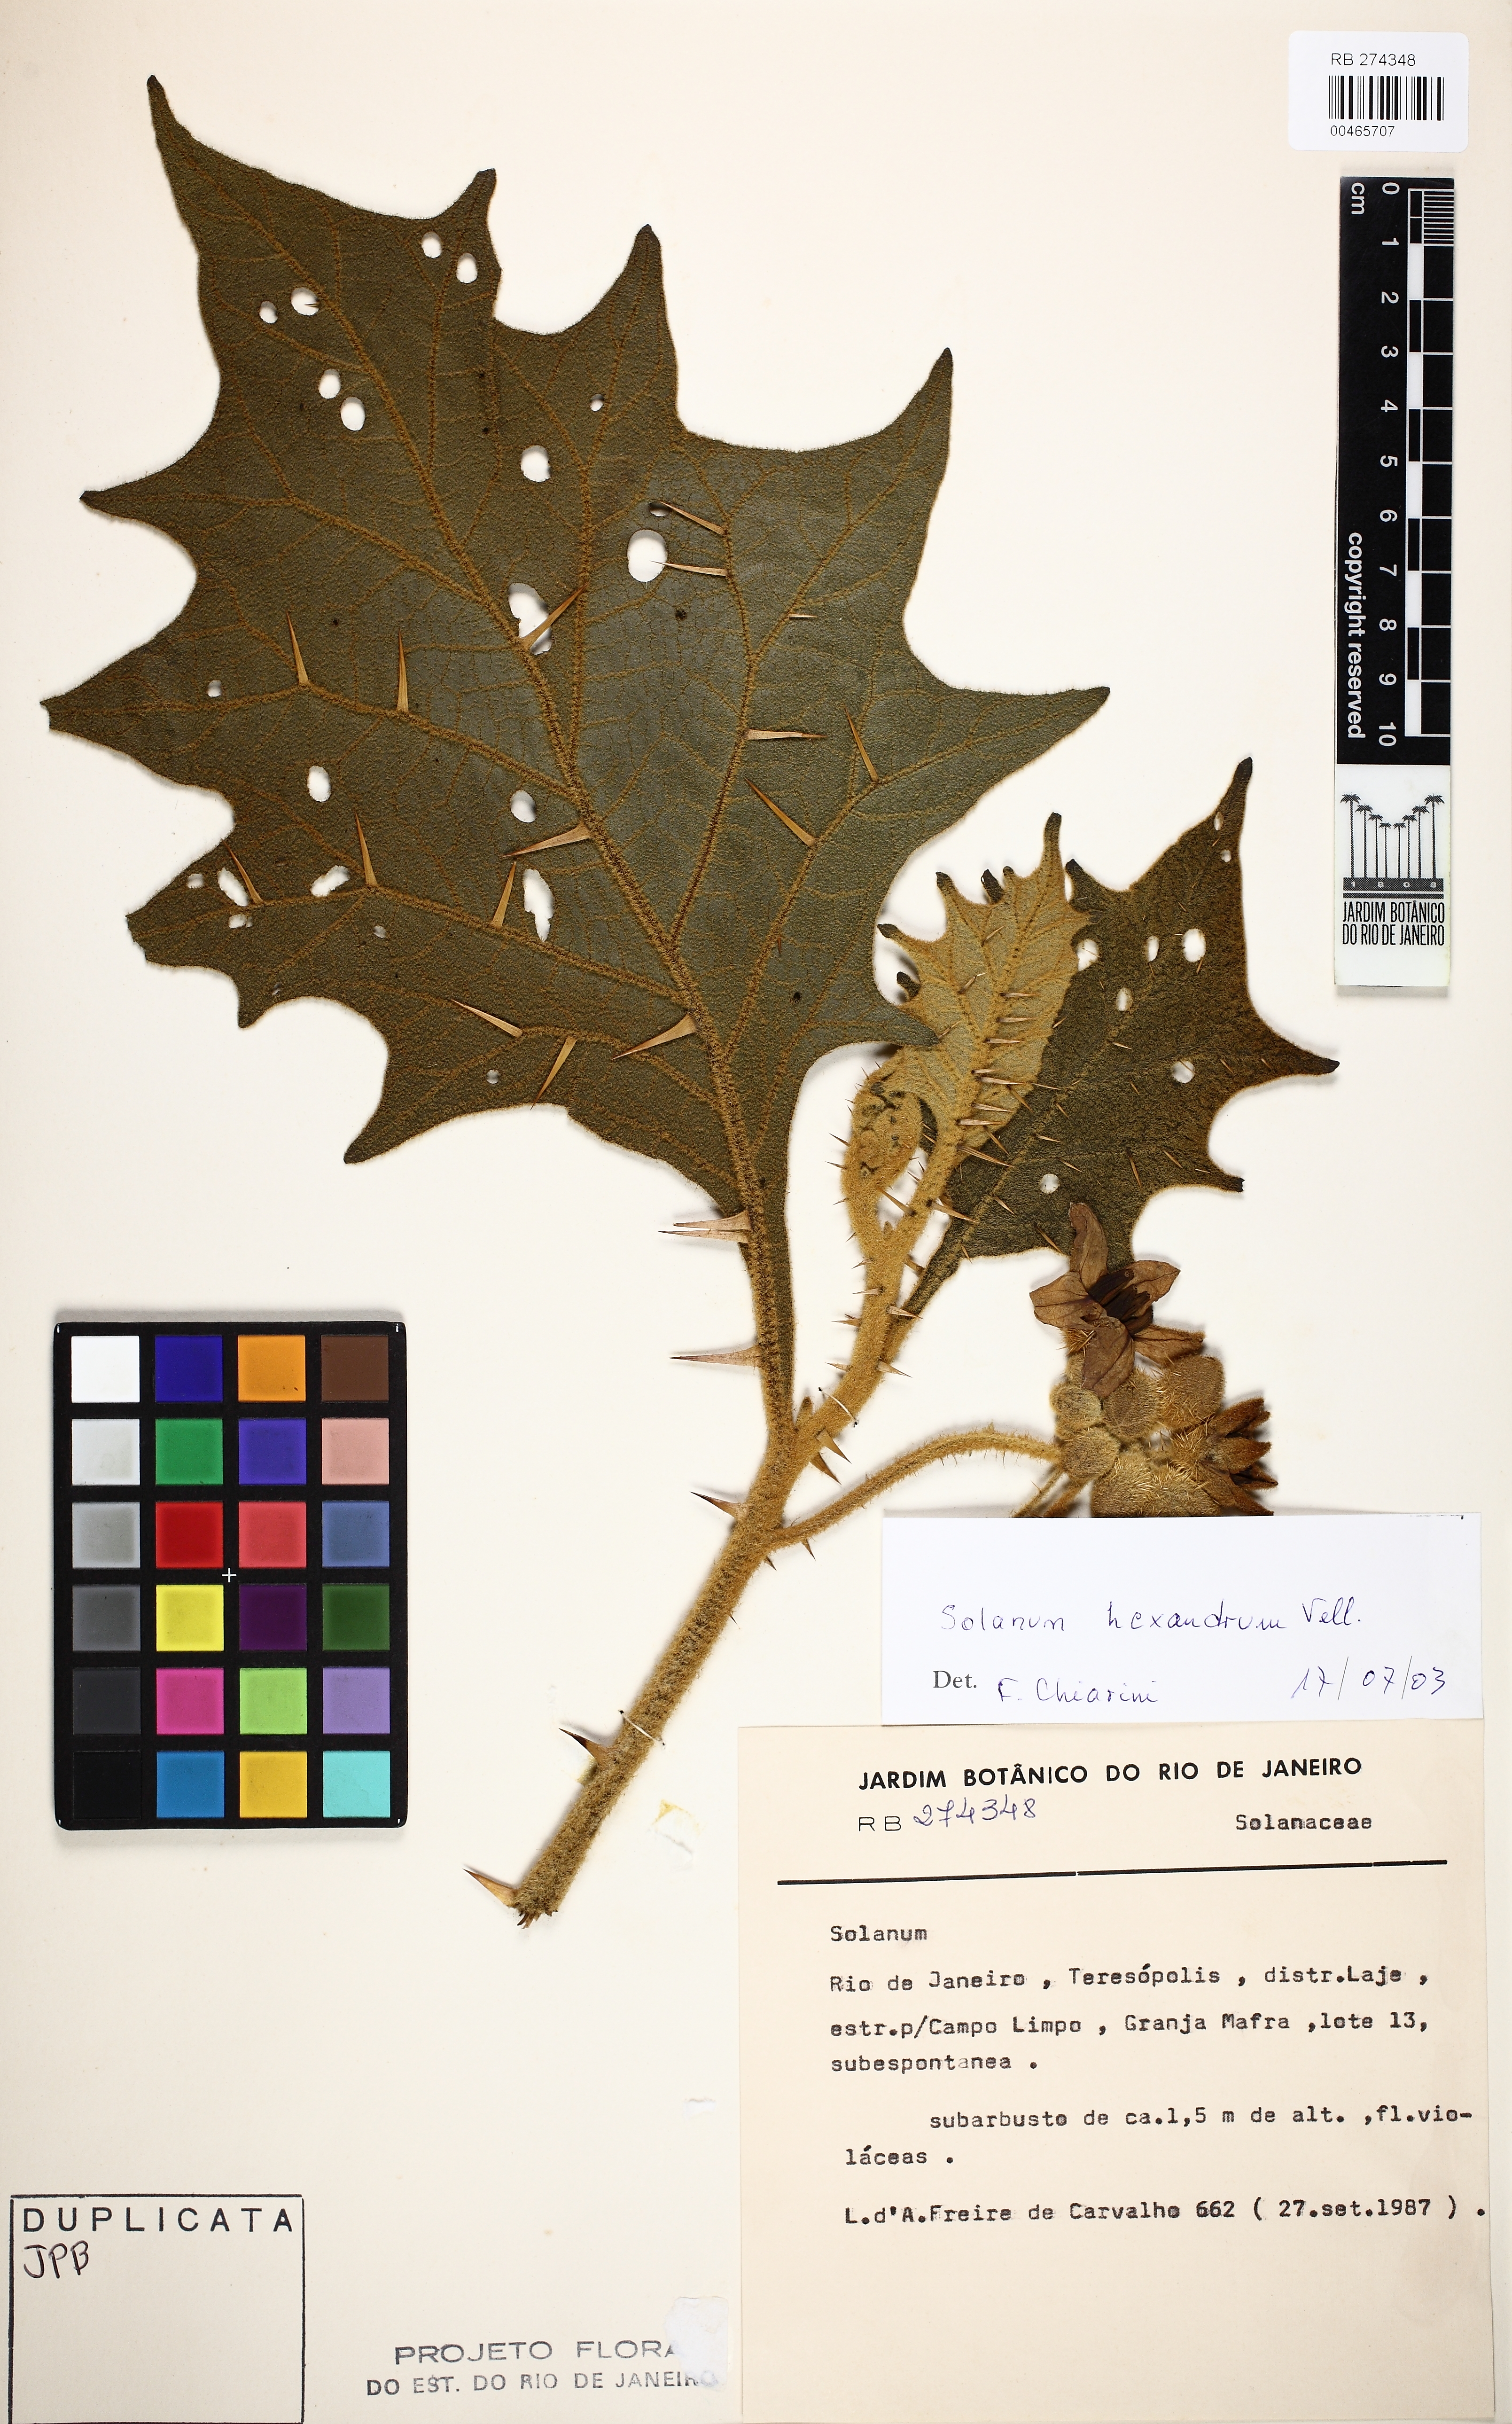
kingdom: Plantae
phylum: Tracheophyta
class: Magnoliopsida
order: Solanales
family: Solanaceae
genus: Solanum
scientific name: Solanum hexandrum
